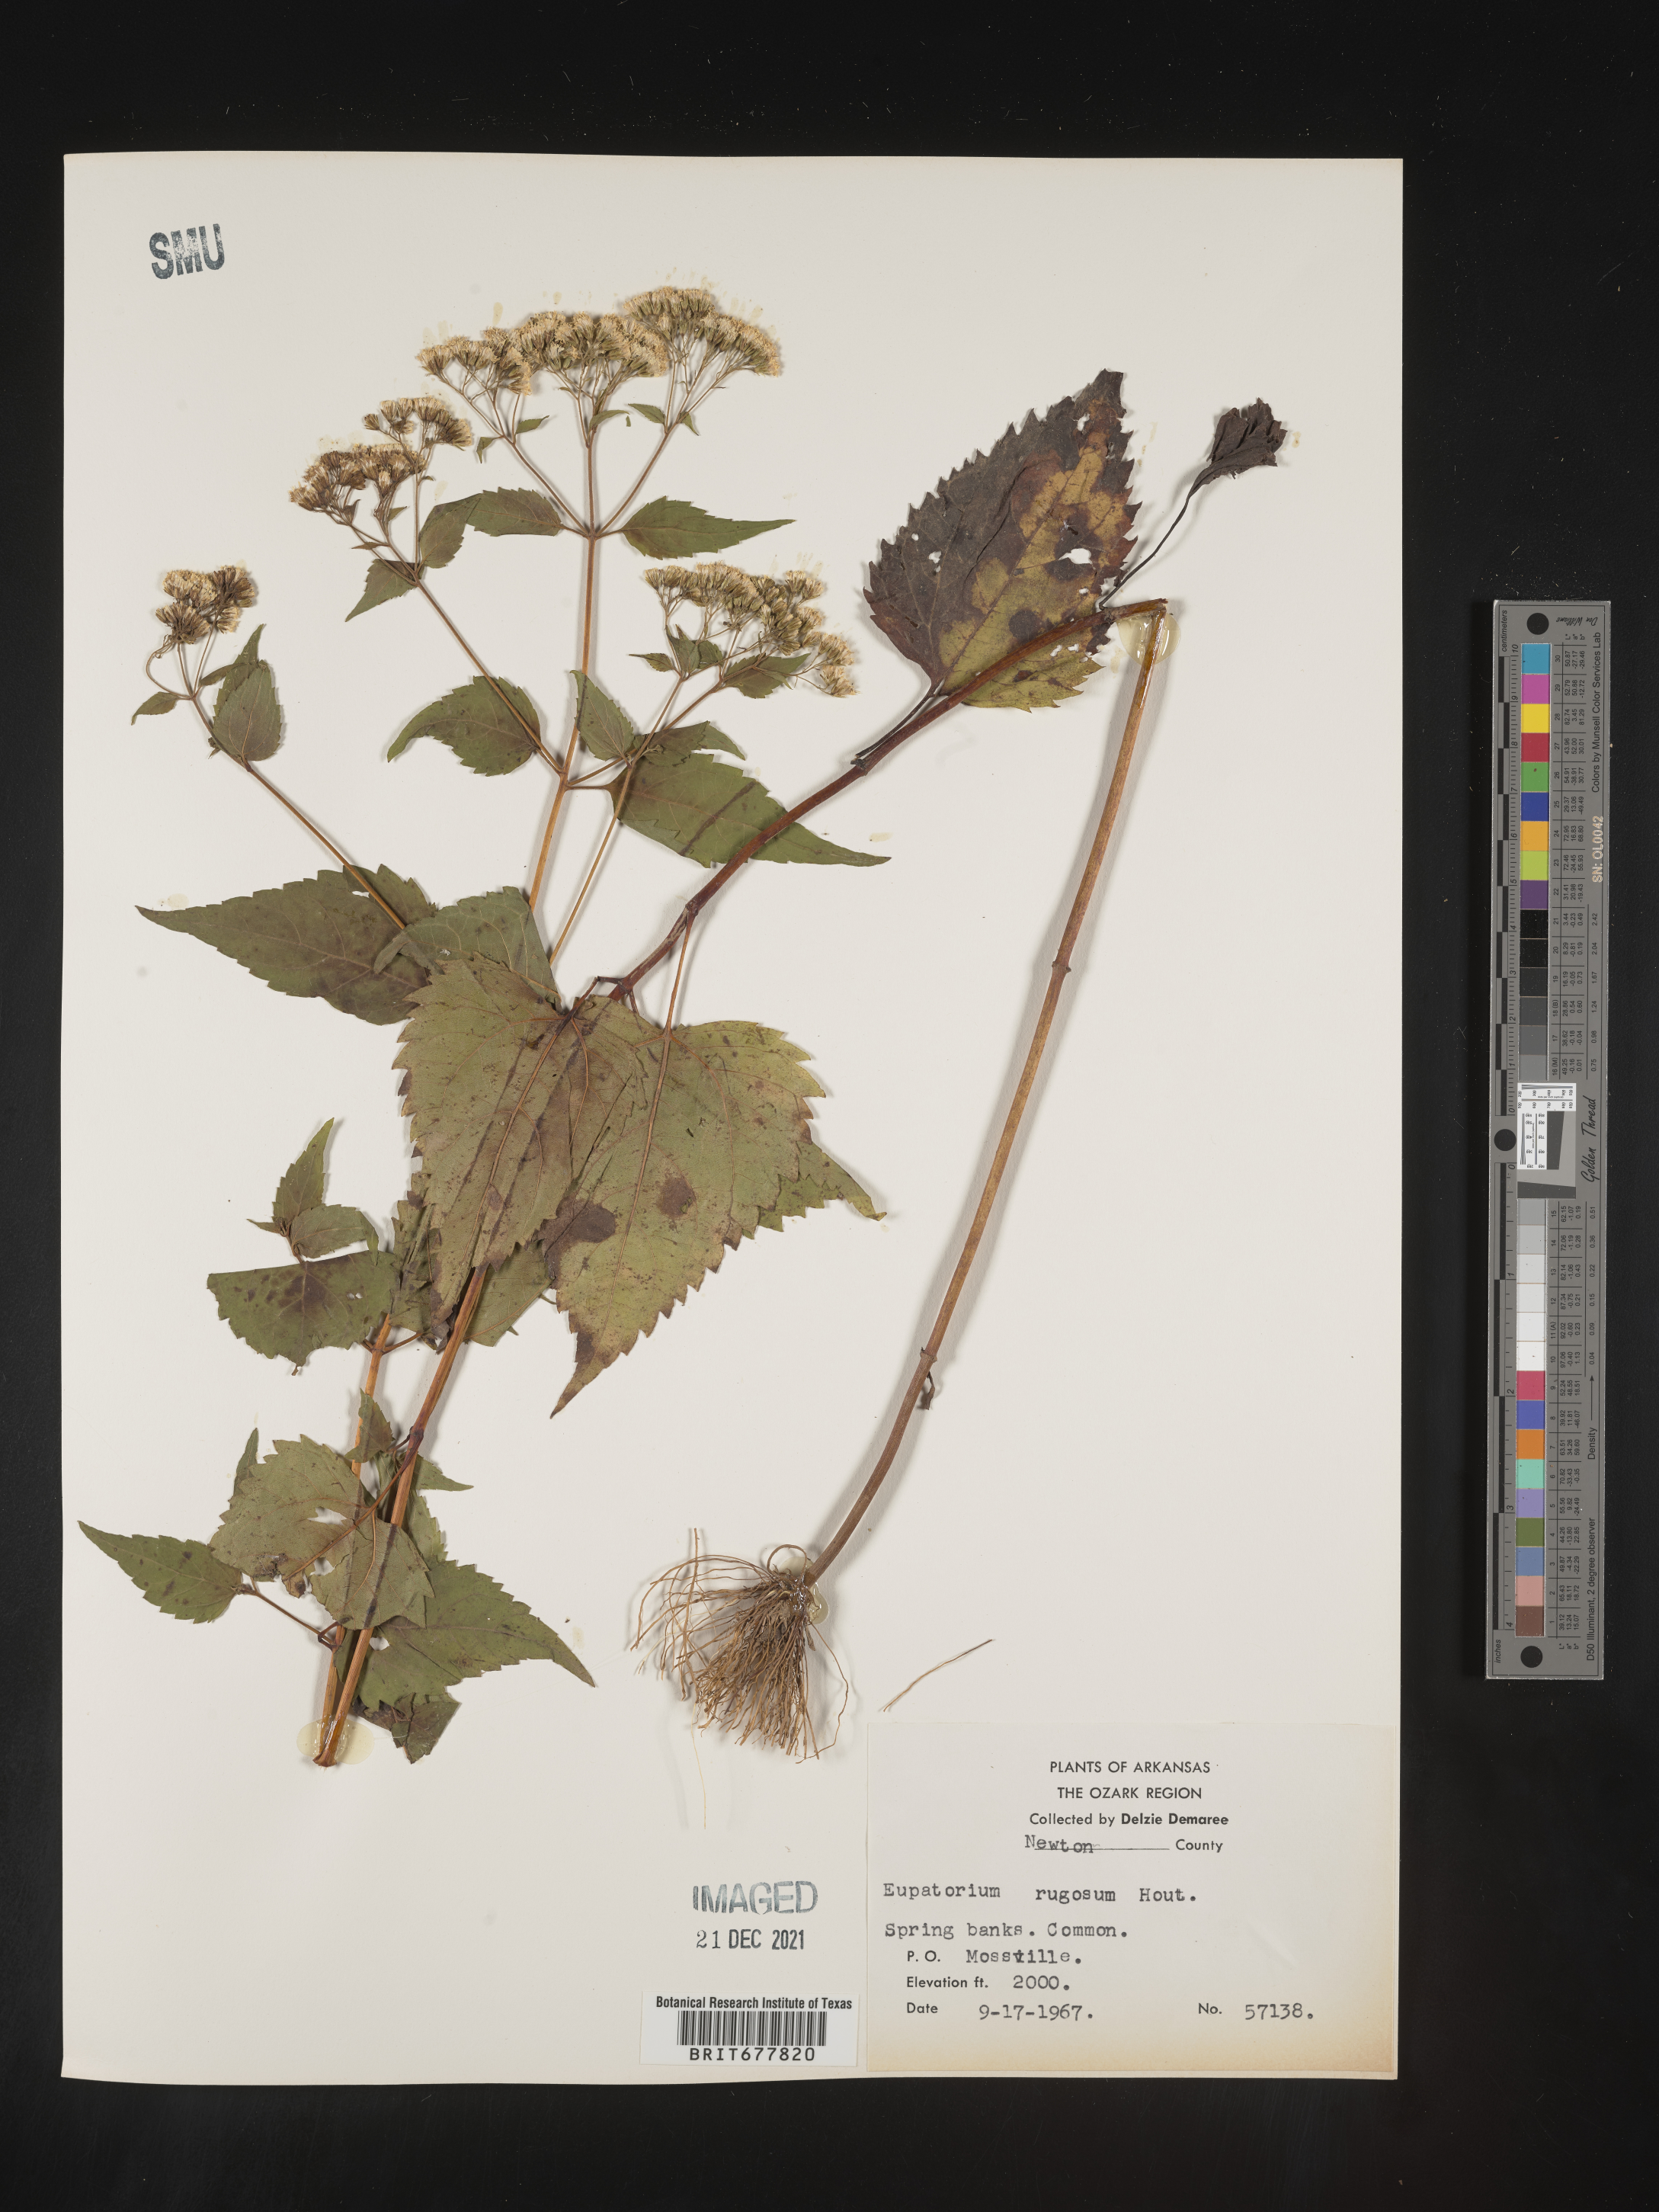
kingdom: Plantae
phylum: Tracheophyta
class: Magnoliopsida
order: Asterales
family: Asteraceae
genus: Ageratina
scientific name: Ageratina altissima
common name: White snakeroot
